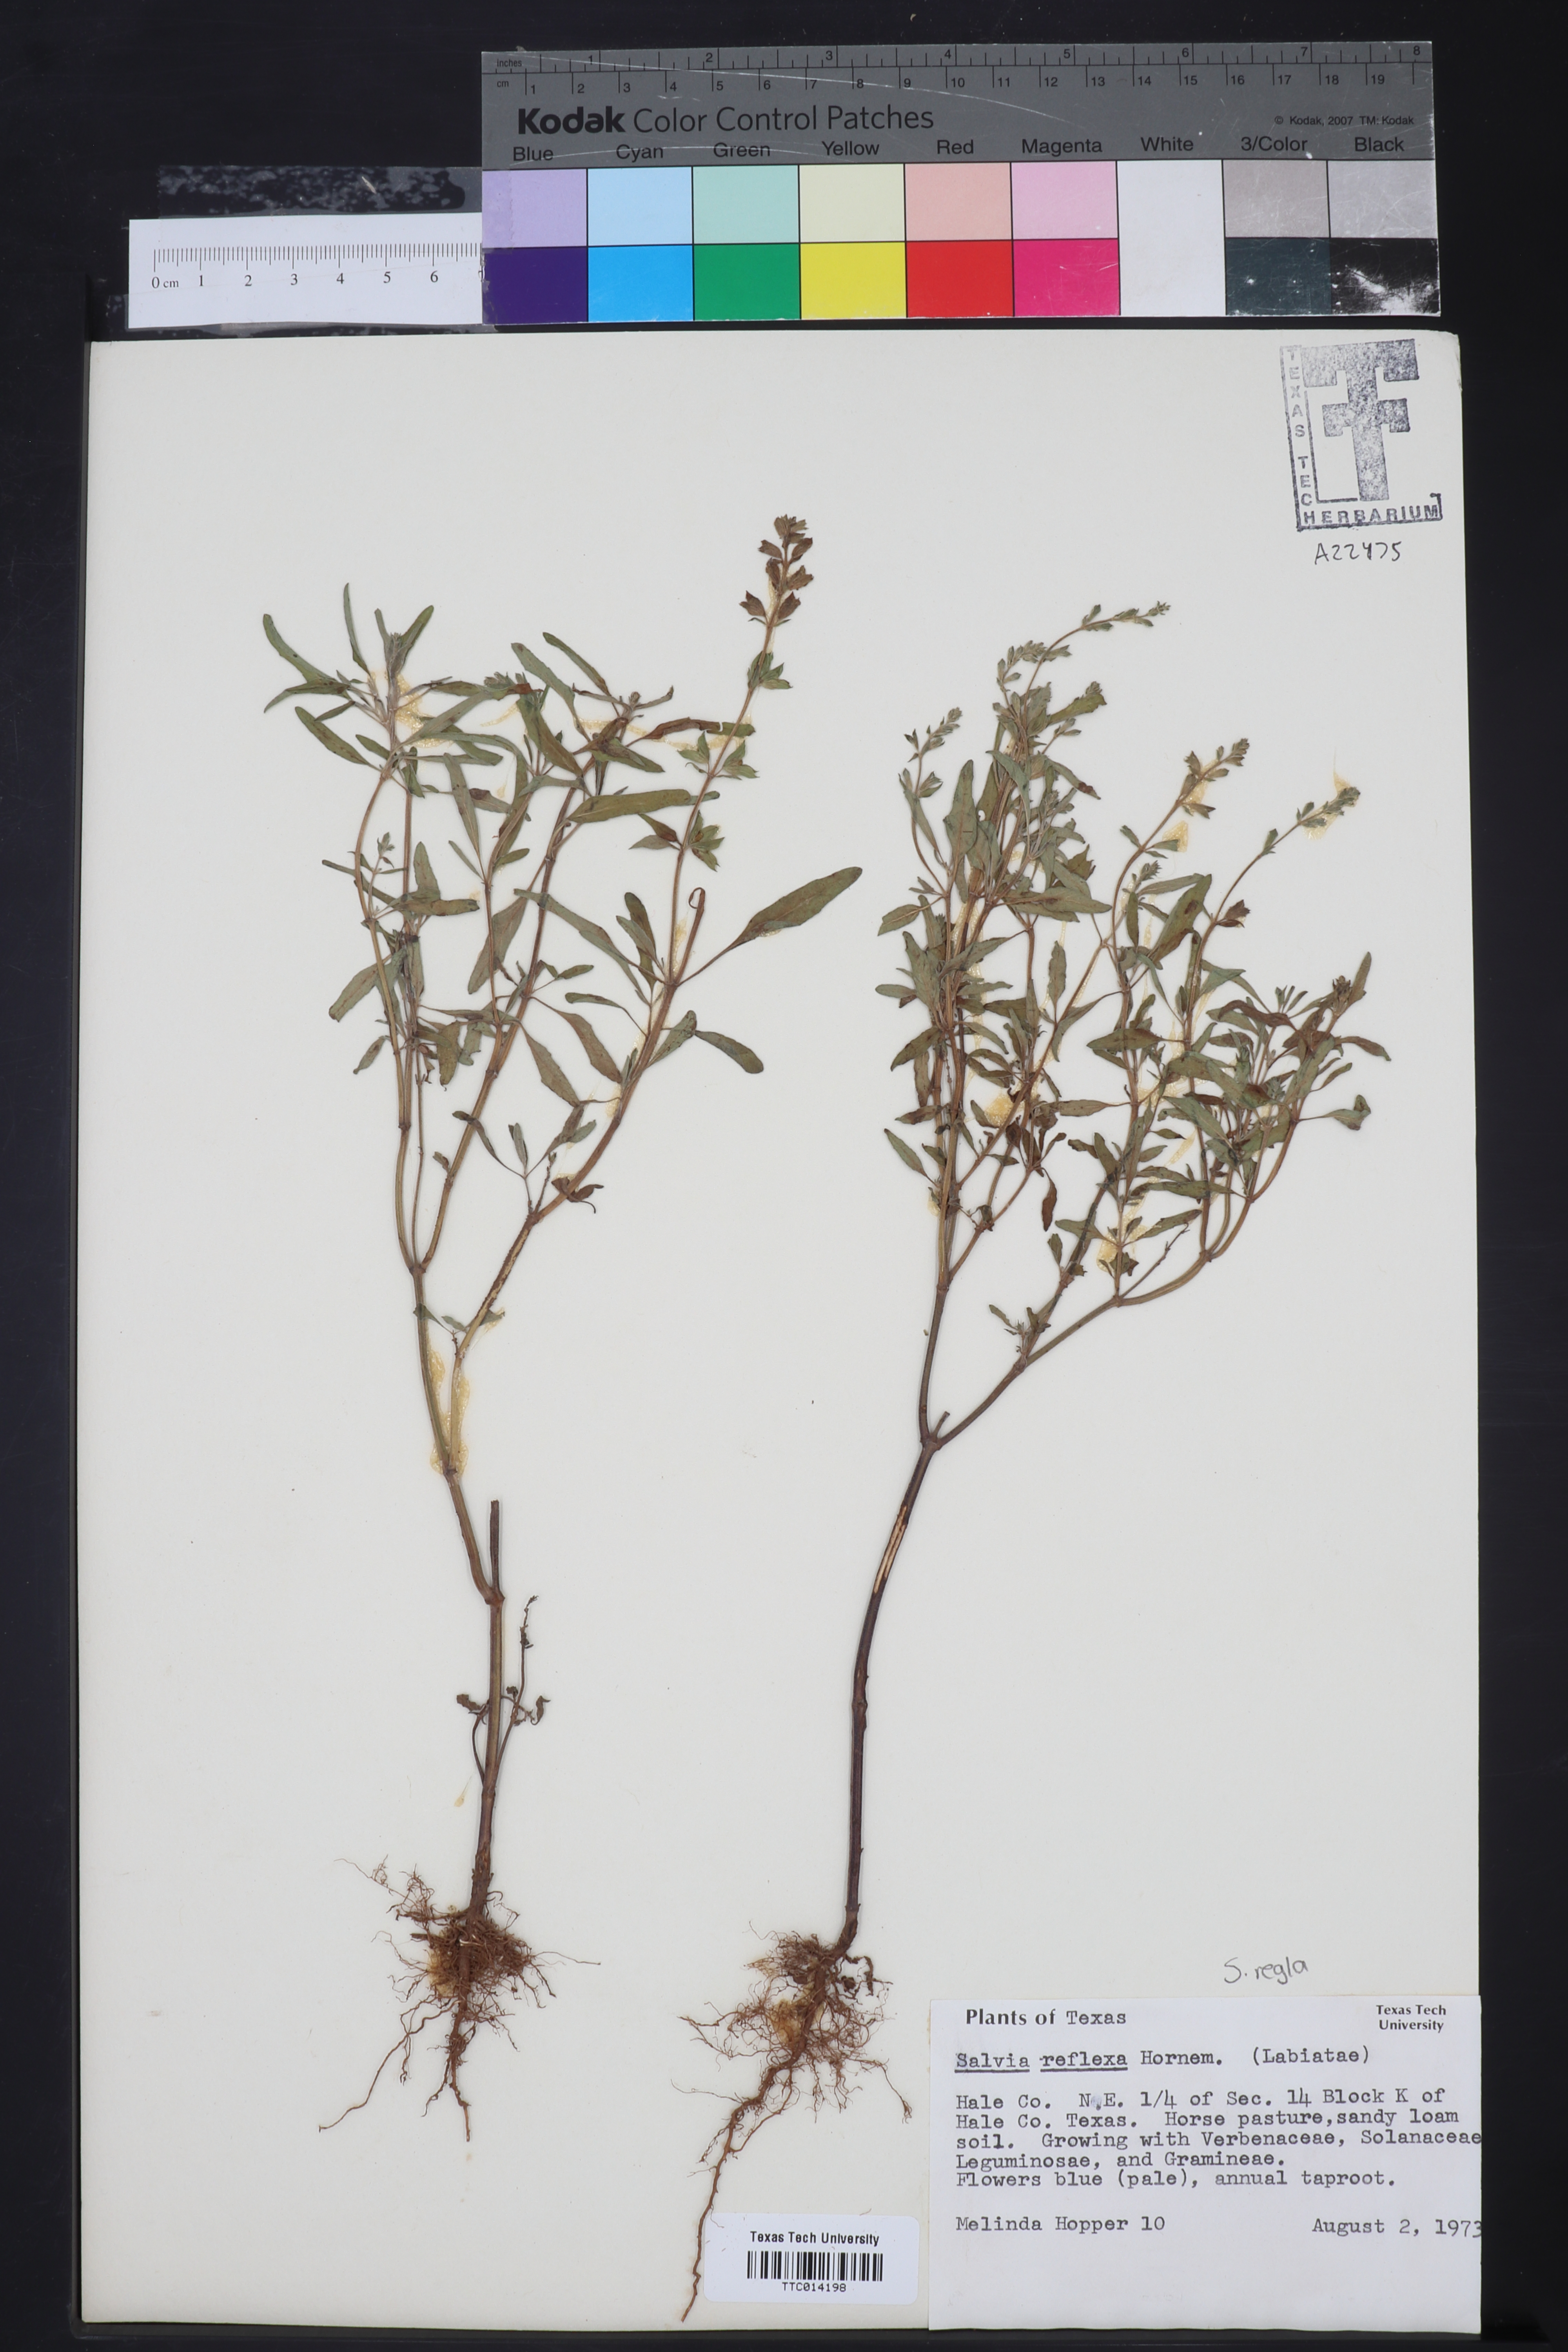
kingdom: Plantae
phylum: Tracheophyta
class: Magnoliopsida
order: Lamiales
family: Lamiaceae
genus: Salvia
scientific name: Salvia reflexa
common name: Mintweed
